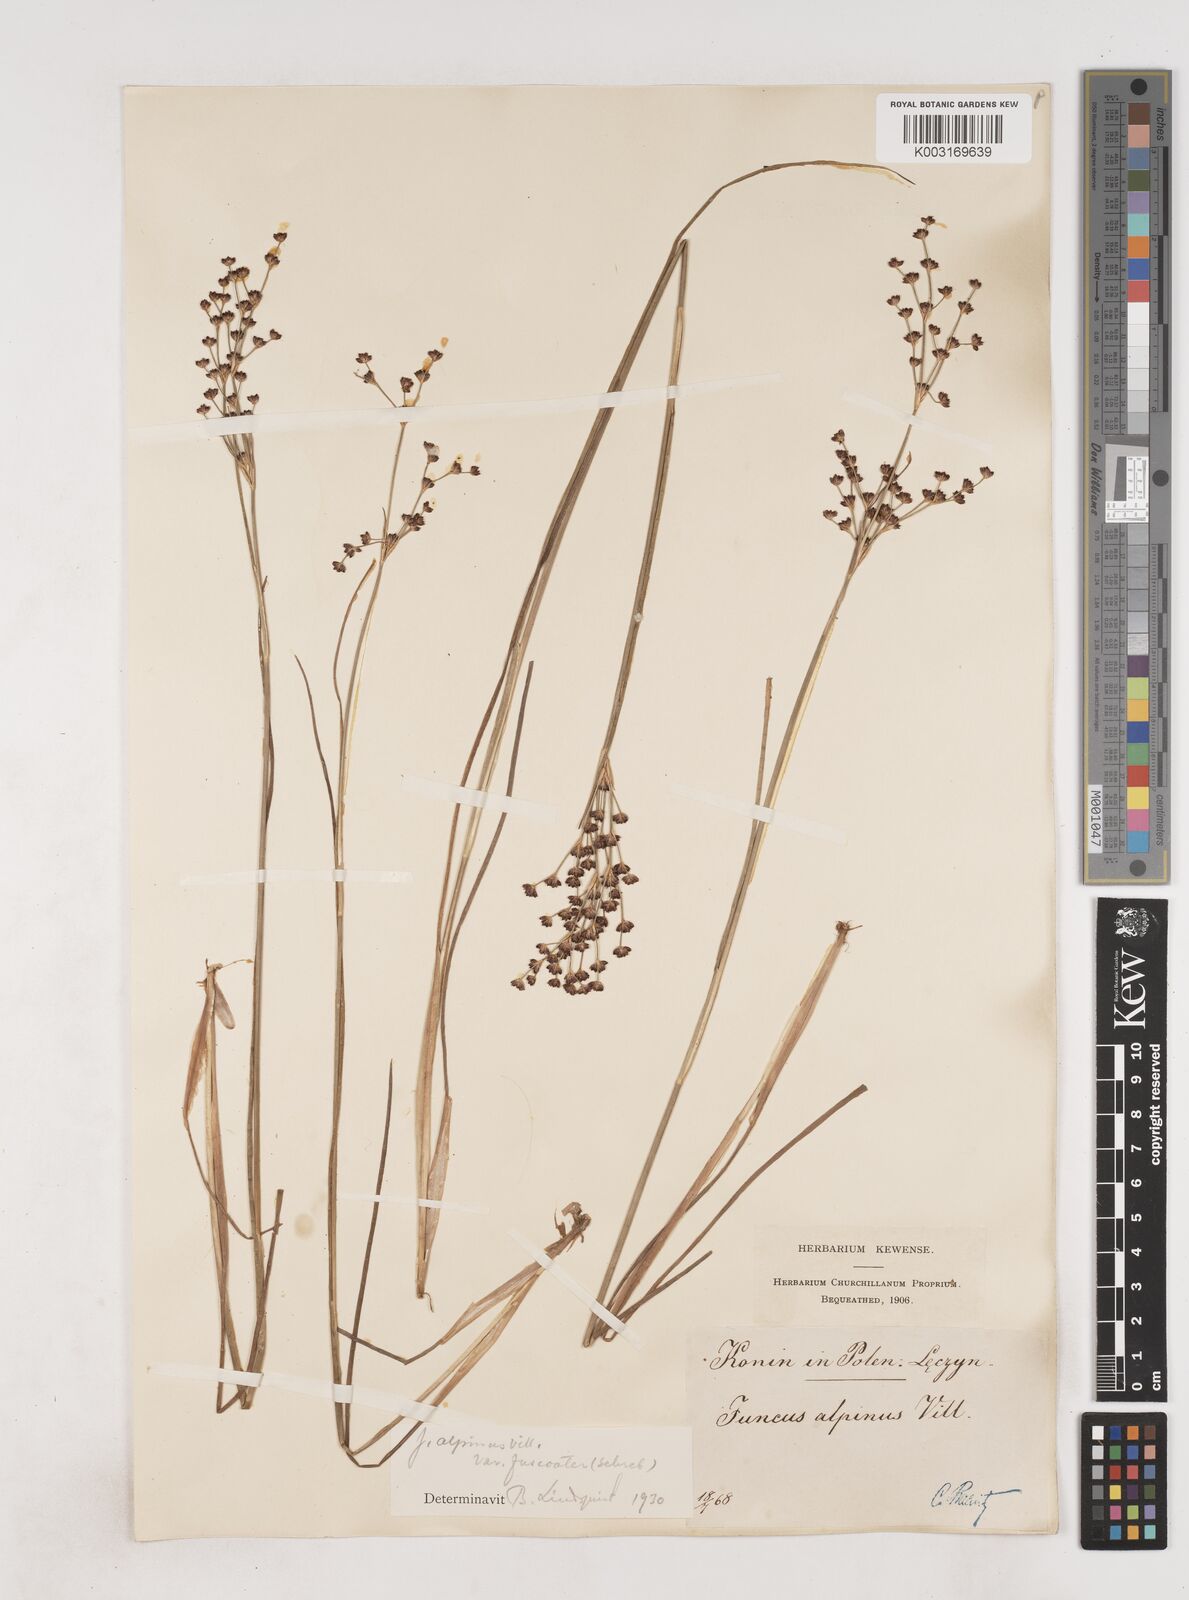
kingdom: Plantae
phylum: Tracheophyta
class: Liliopsida
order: Poales
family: Juncaceae
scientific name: Juncaceae
